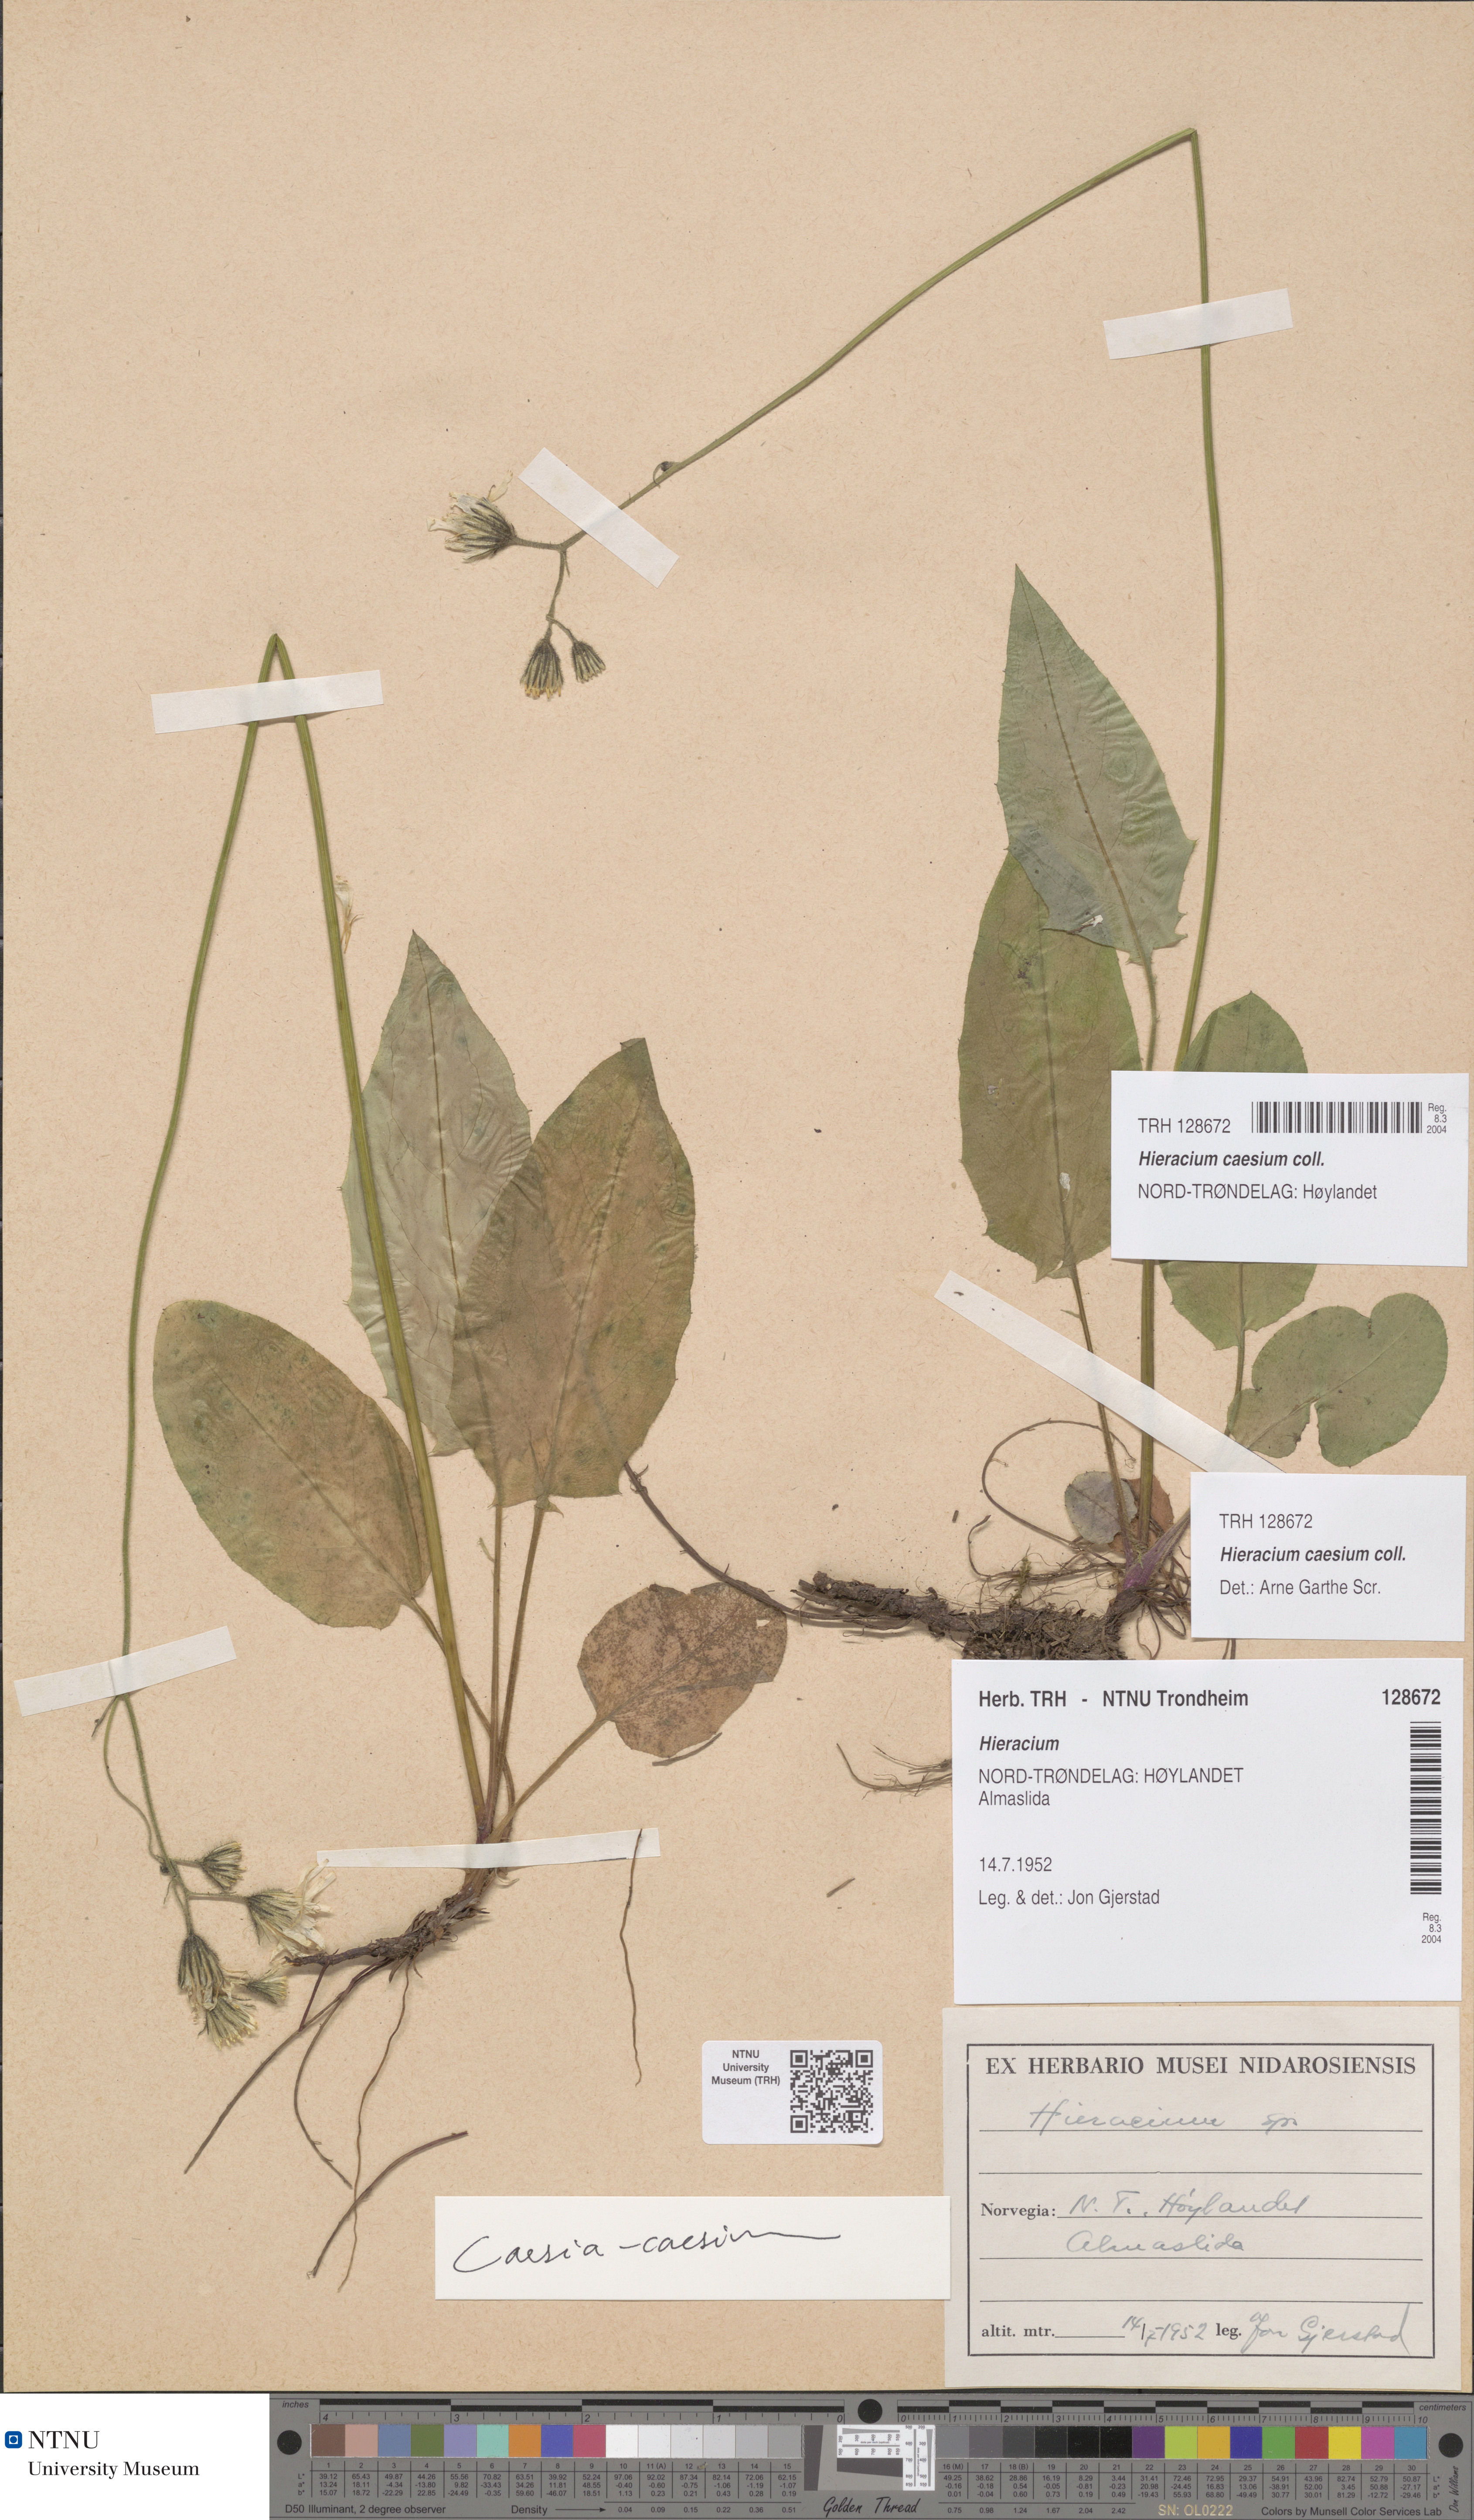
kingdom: Plantae
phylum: Tracheophyta
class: Magnoliopsida
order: Asterales
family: Asteraceae
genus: Hieracium
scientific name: Hieracium caesium
